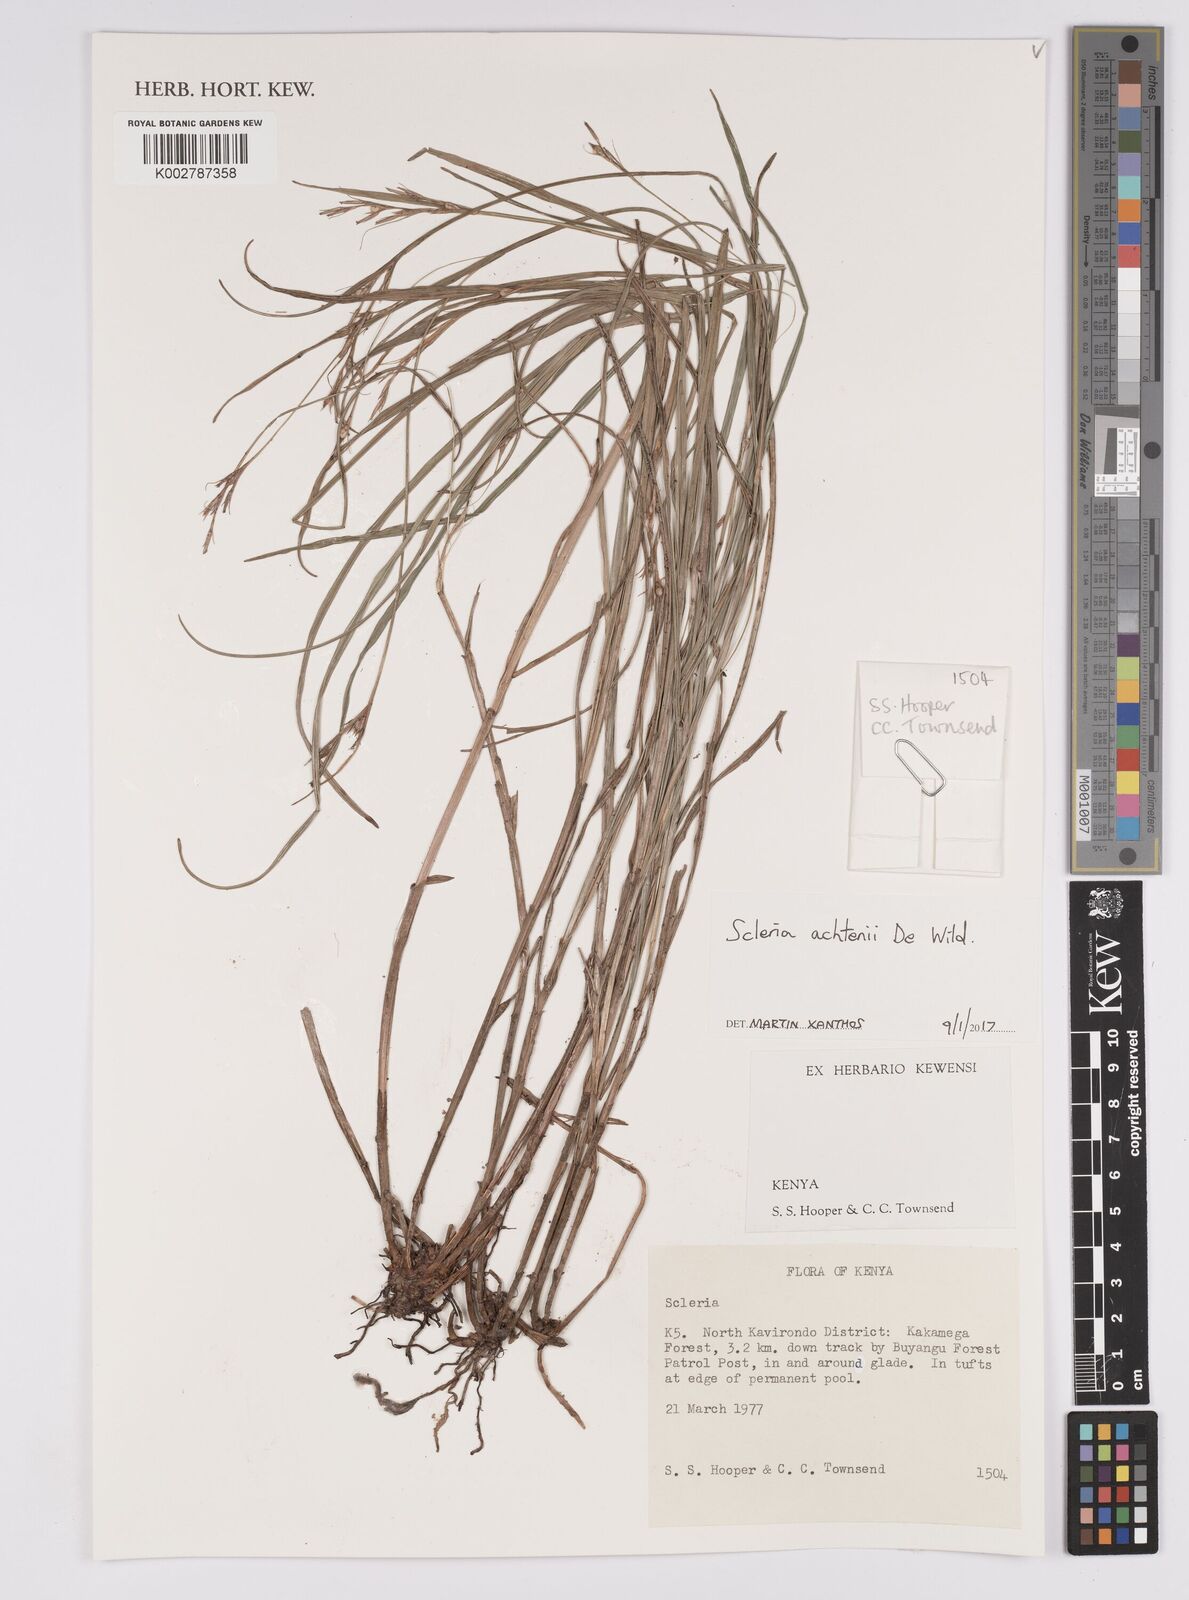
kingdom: Plantae
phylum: Tracheophyta
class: Liliopsida
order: Poales
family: Cyperaceae
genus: Scleria
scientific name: Scleria achtenii
